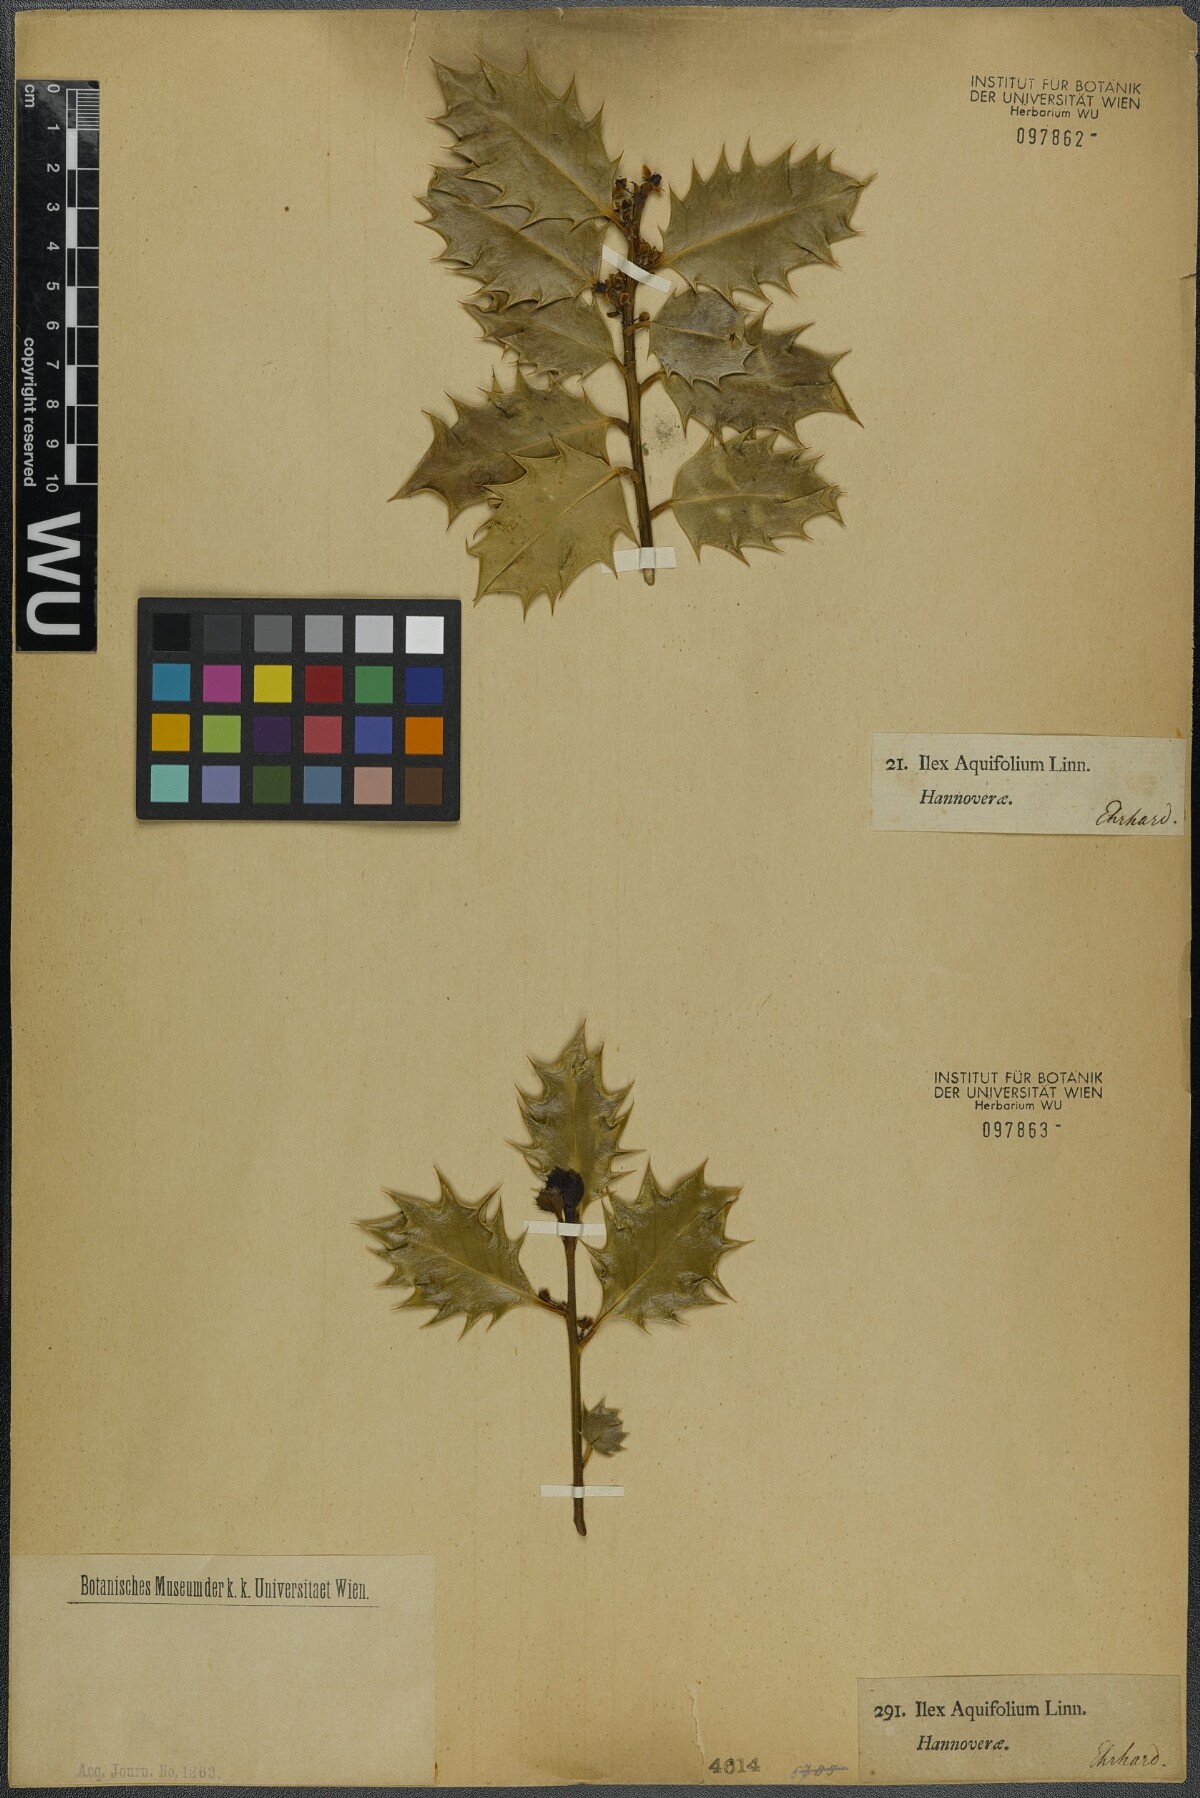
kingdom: Plantae
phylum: Tracheophyta
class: Magnoliopsida
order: Aquifoliales
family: Aquifoliaceae
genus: Ilex
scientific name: Ilex aquifolium
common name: English holly
